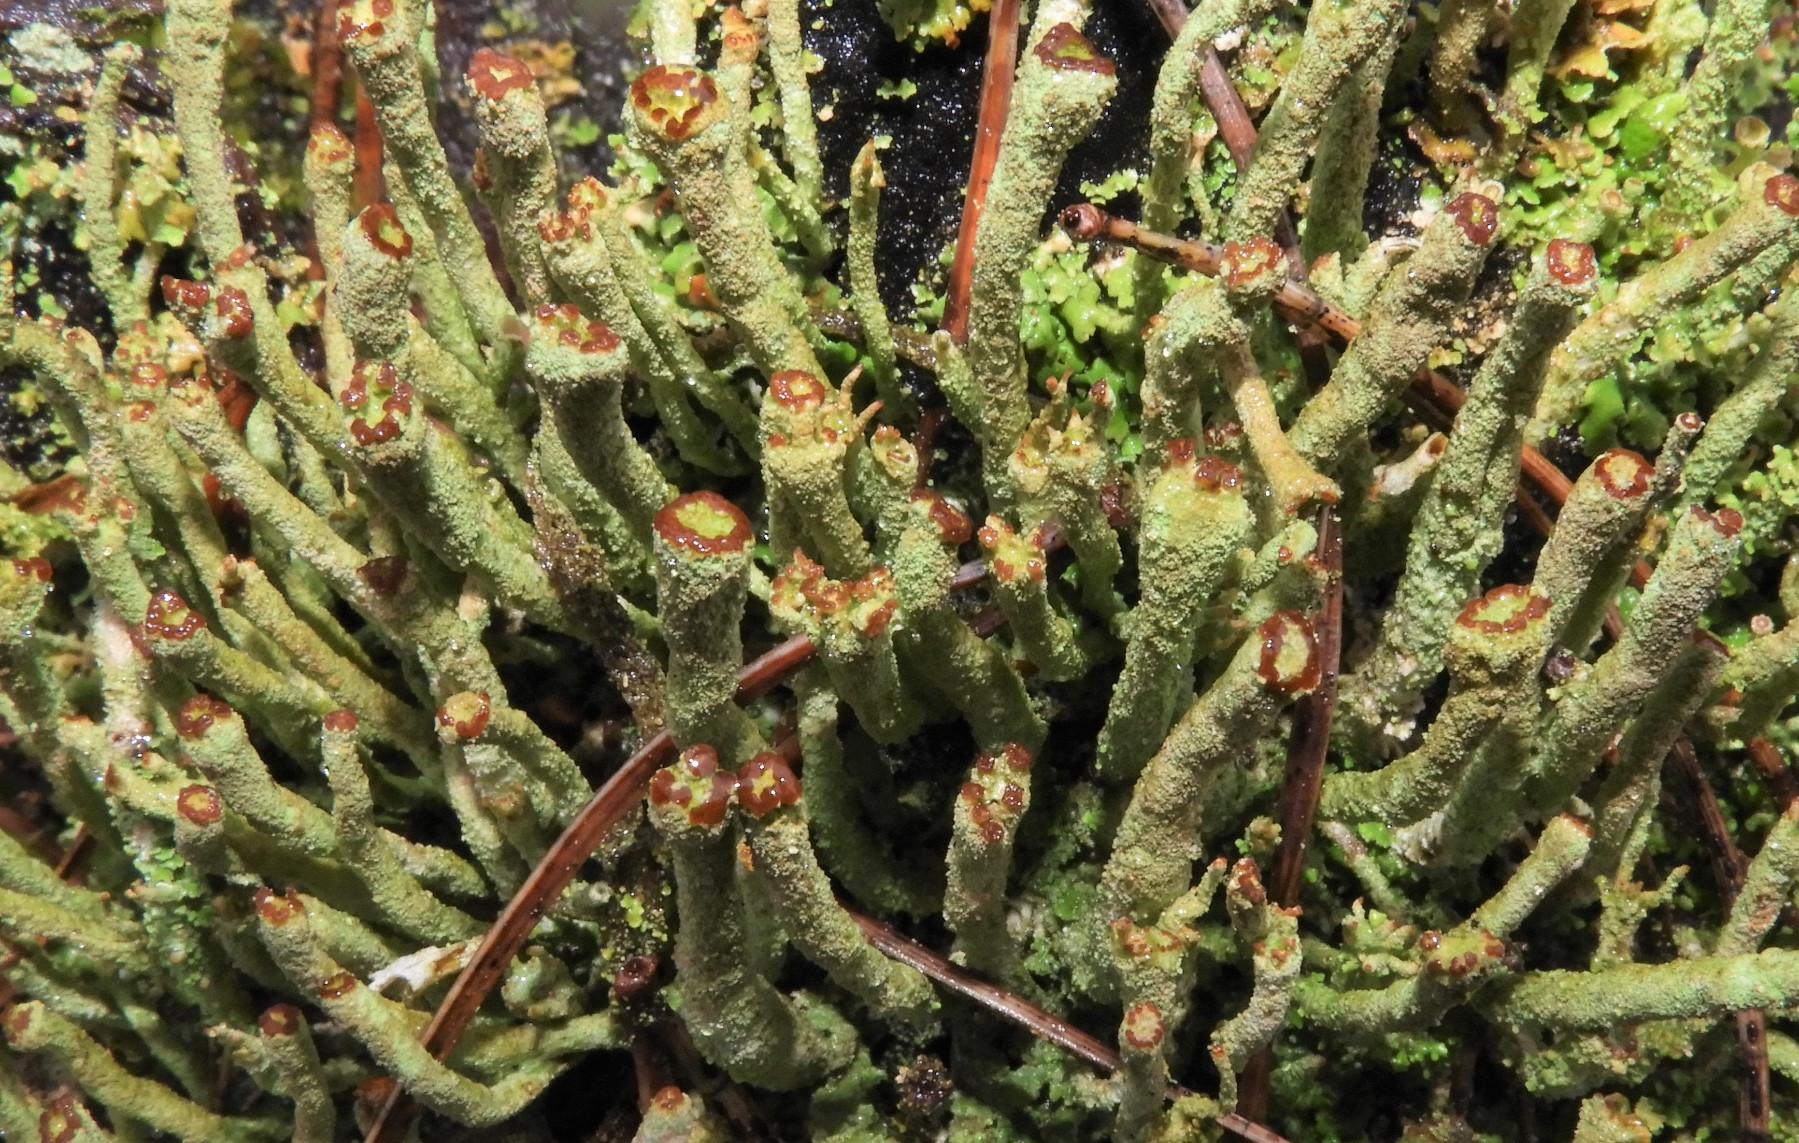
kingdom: Fungi
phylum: Ascomycota
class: Lecanoromycetes
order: Lecanorales
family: Cladoniaceae
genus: Cladonia
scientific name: Cladonia ochrochlora
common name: stød-bægerlav
